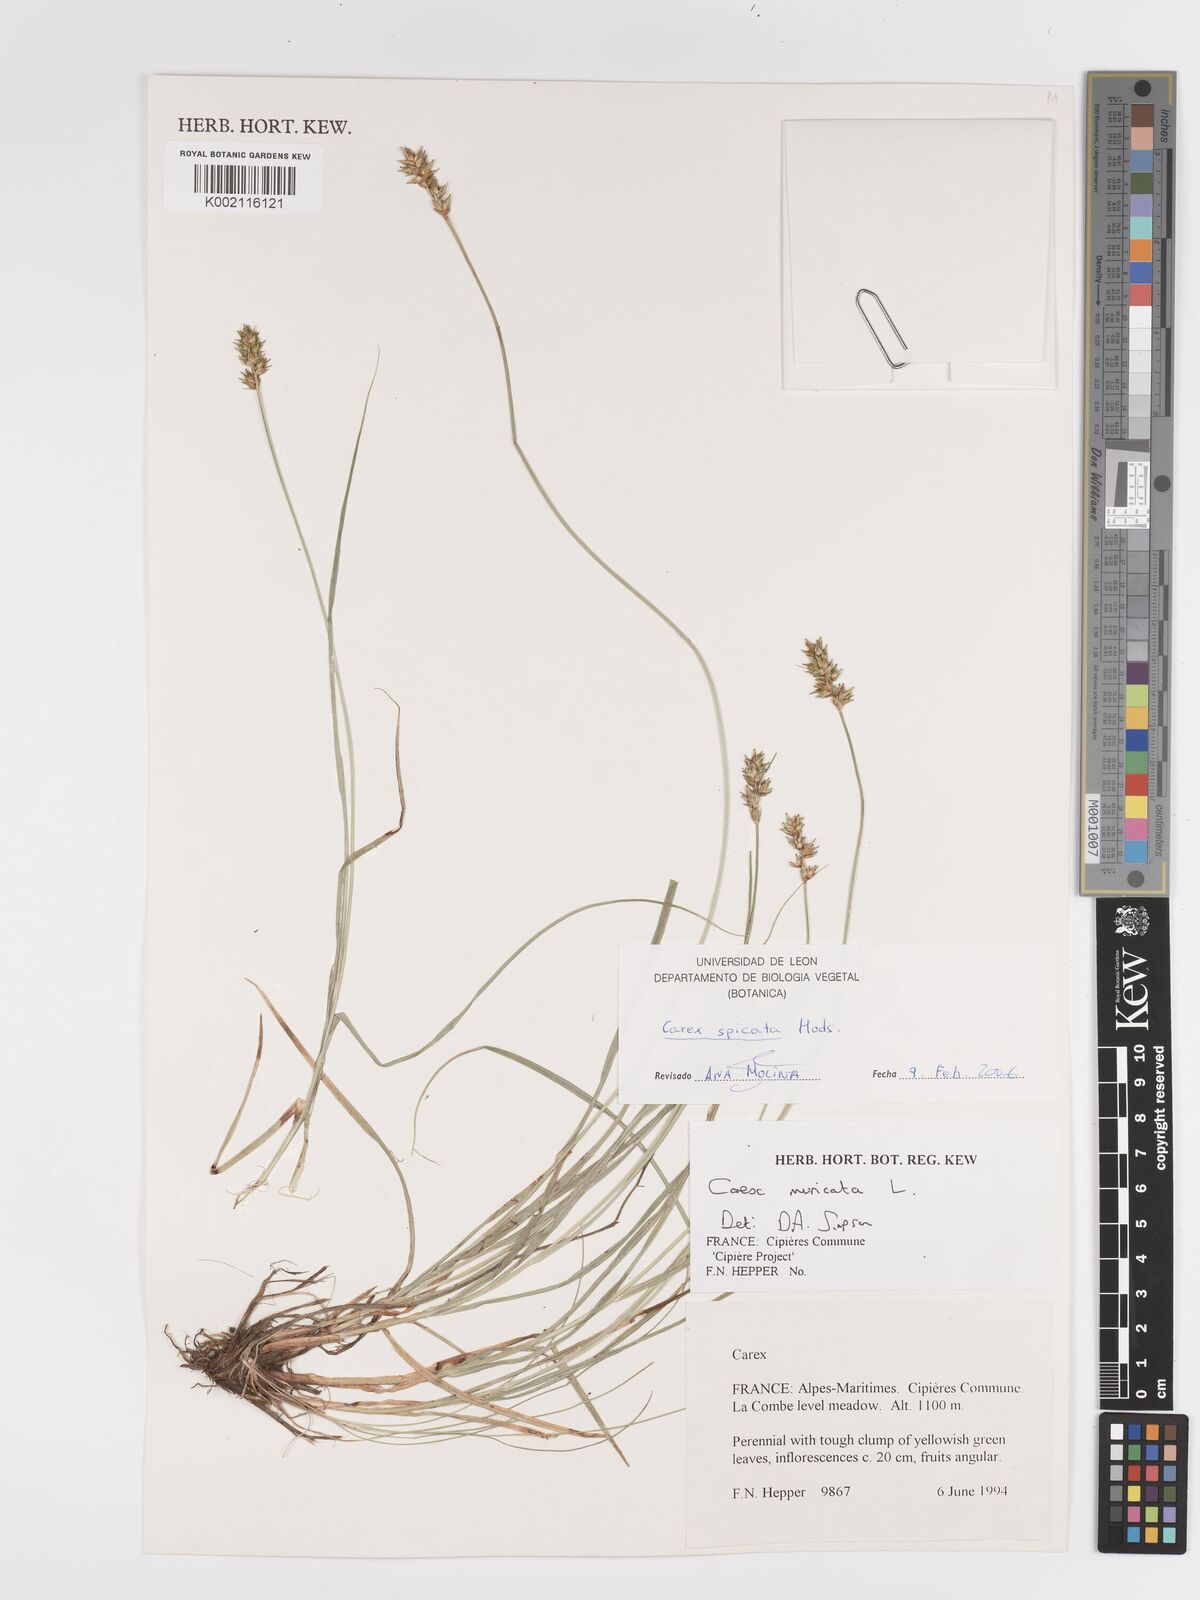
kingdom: Plantae
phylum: Tracheophyta
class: Liliopsida
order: Poales
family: Cyperaceae
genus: Carex
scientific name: Carex spicata
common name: Spiked sedge
